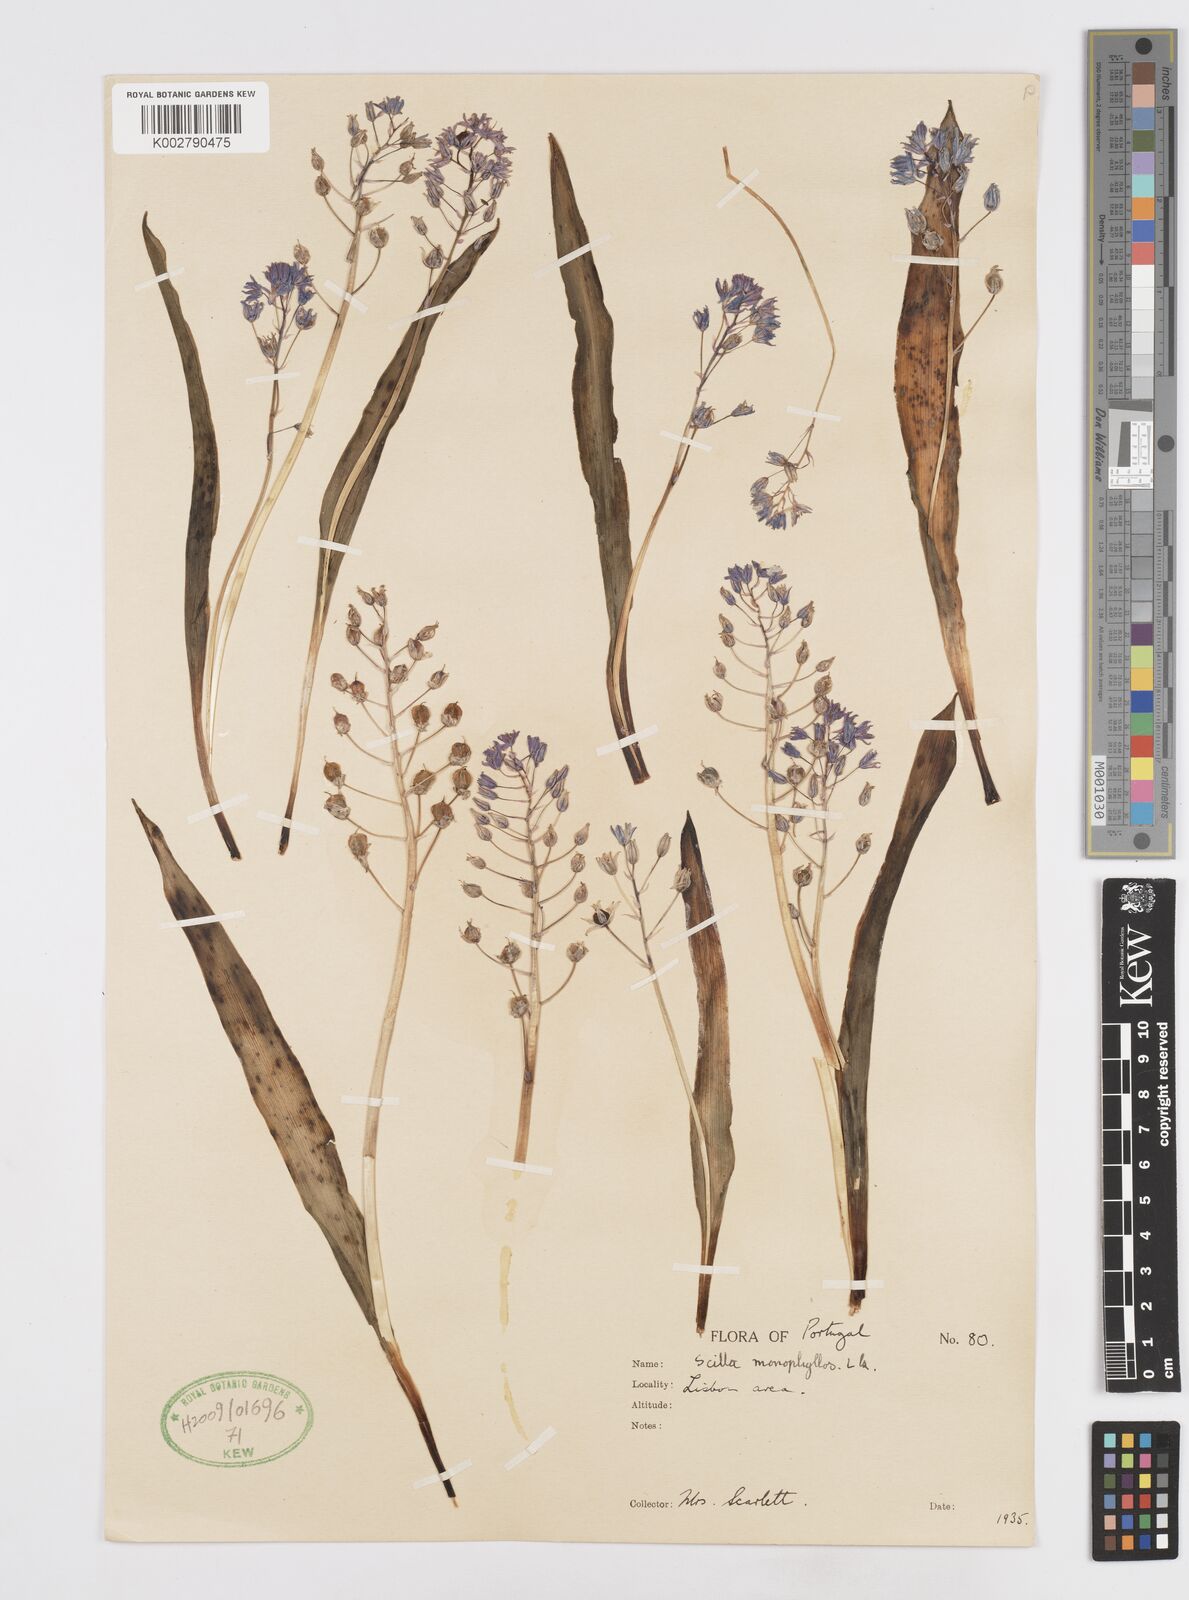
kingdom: Plantae
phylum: Tracheophyta
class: Liliopsida
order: Asparagales
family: Asparagaceae
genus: Scilla
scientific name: Scilla monophyllos
